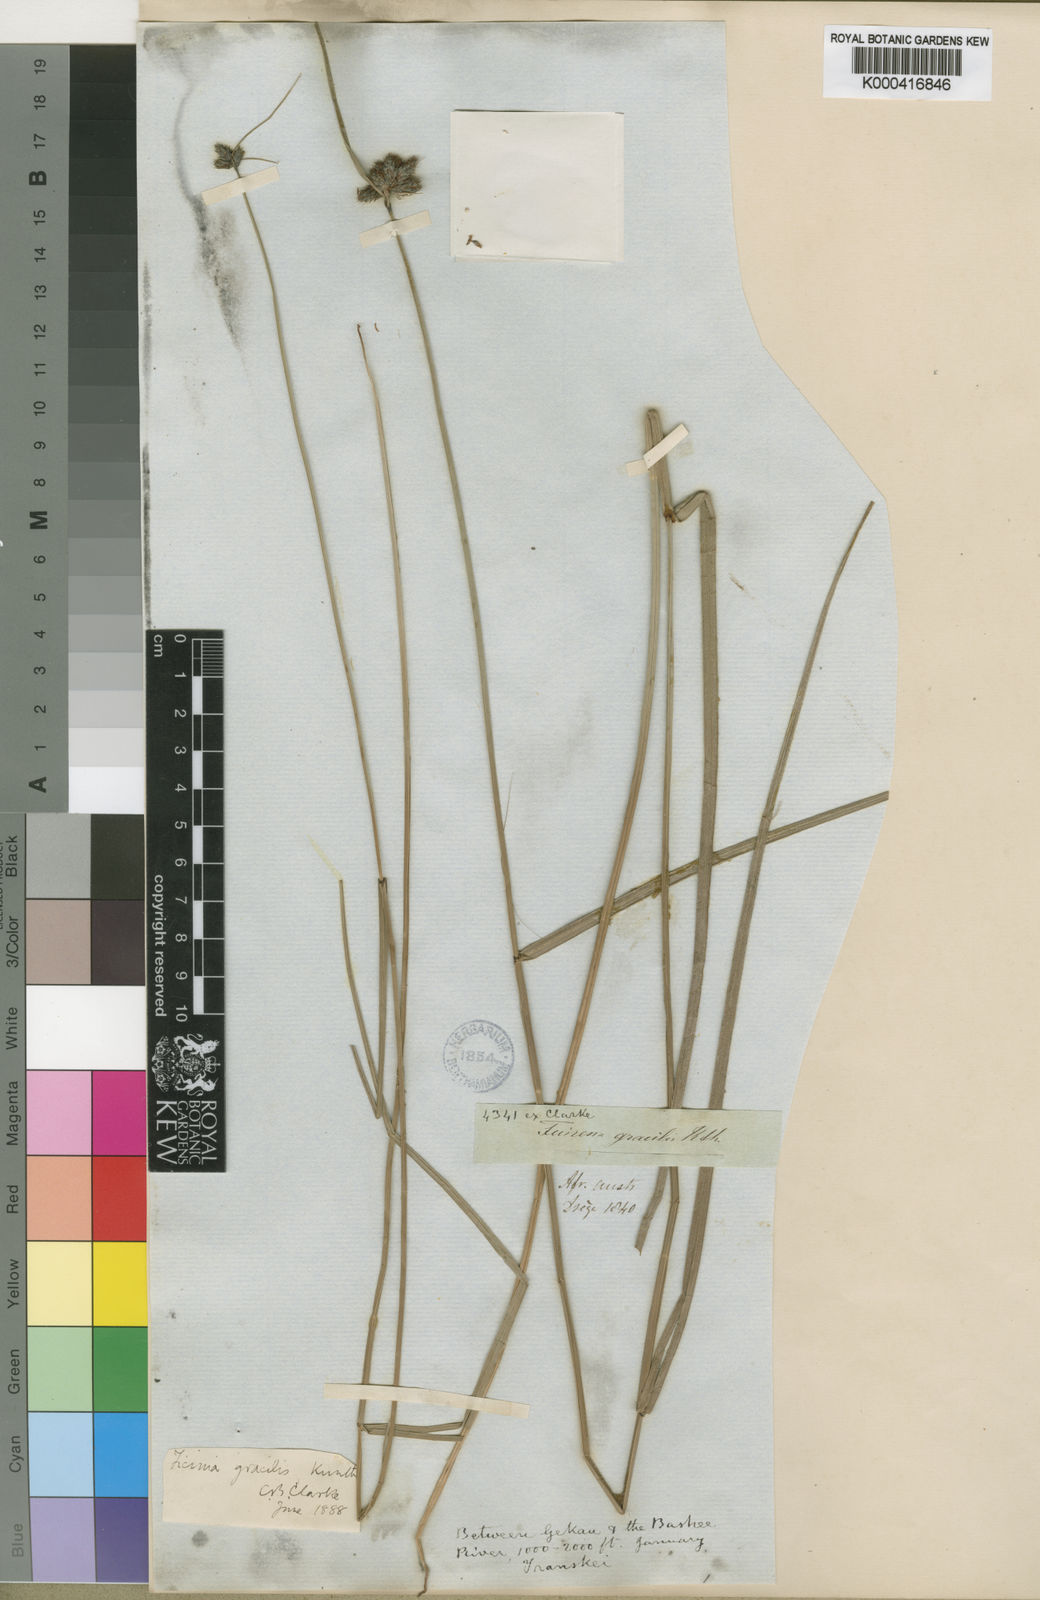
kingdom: Plantae
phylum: Tracheophyta
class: Liliopsida
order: Poales
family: Cyperaceae
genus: Fuirena
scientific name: Fuirena coerulescens
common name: Blue umbrella-sedge
